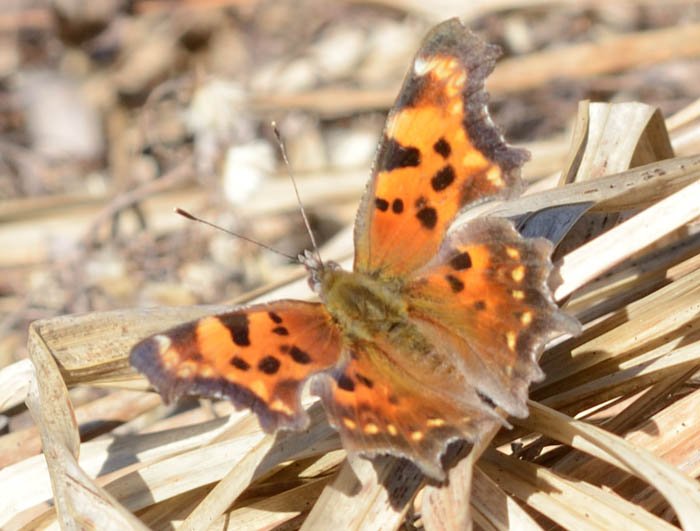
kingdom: Animalia
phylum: Arthropoda
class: Insecta
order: Lepidoptera
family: Nymphalidae
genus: Polygonia
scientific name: Polygonia faunus
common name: Green Comma
